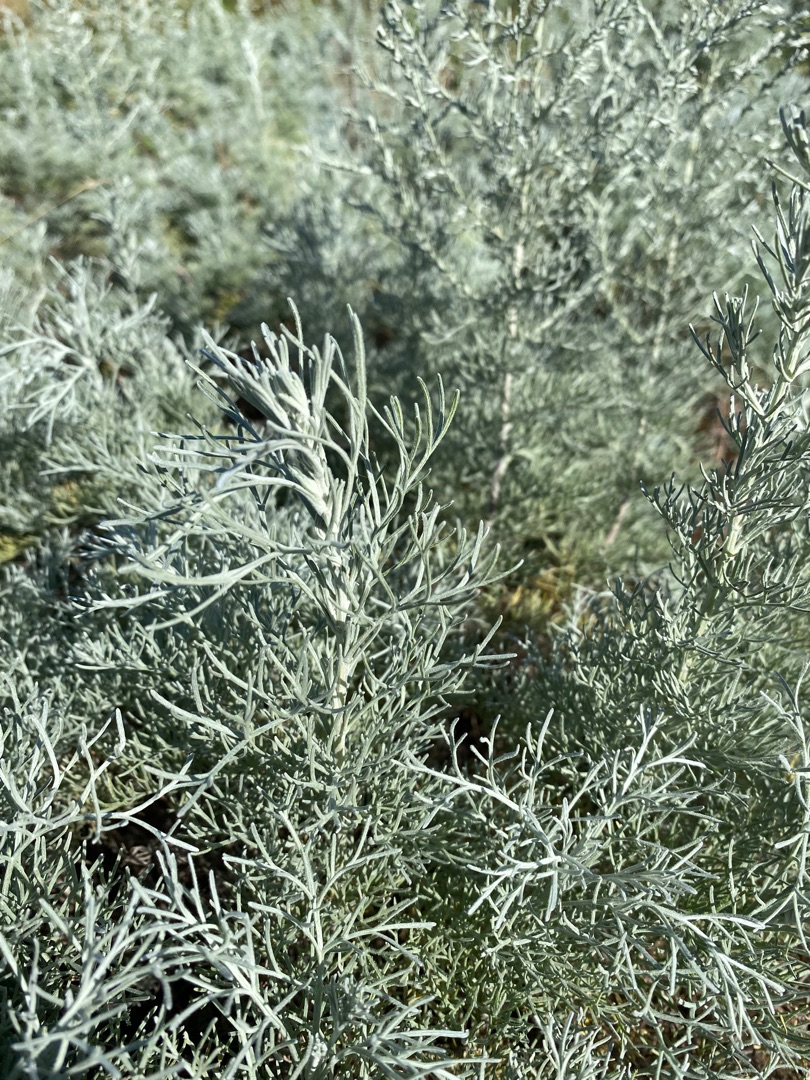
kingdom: Plantae
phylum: Tracheophyta
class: Magnoliopsida
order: Asterales
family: Asteraceae
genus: Artemisia
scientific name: Artemisia maritima
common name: Strandmalurt
